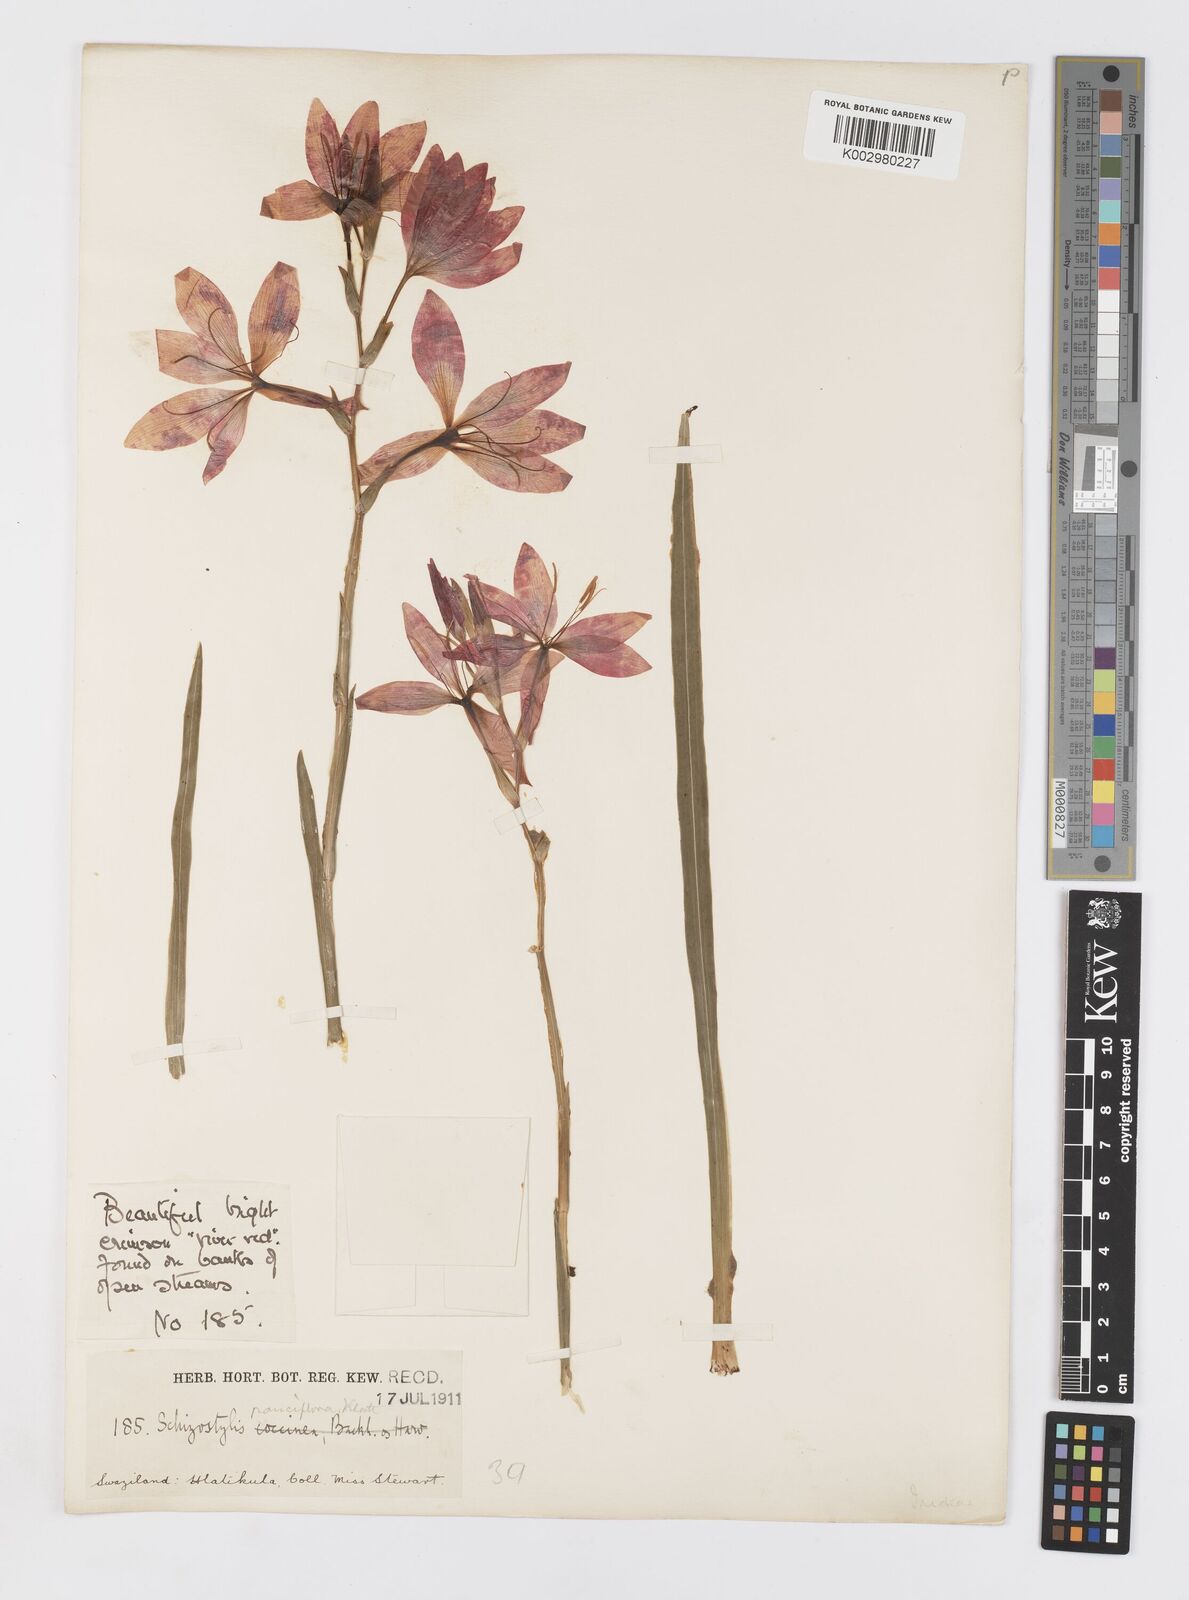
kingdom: Plantae
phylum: Tracheophyta
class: Liliopsida
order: Asparagales
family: Iridaceae
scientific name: Iridaceae
